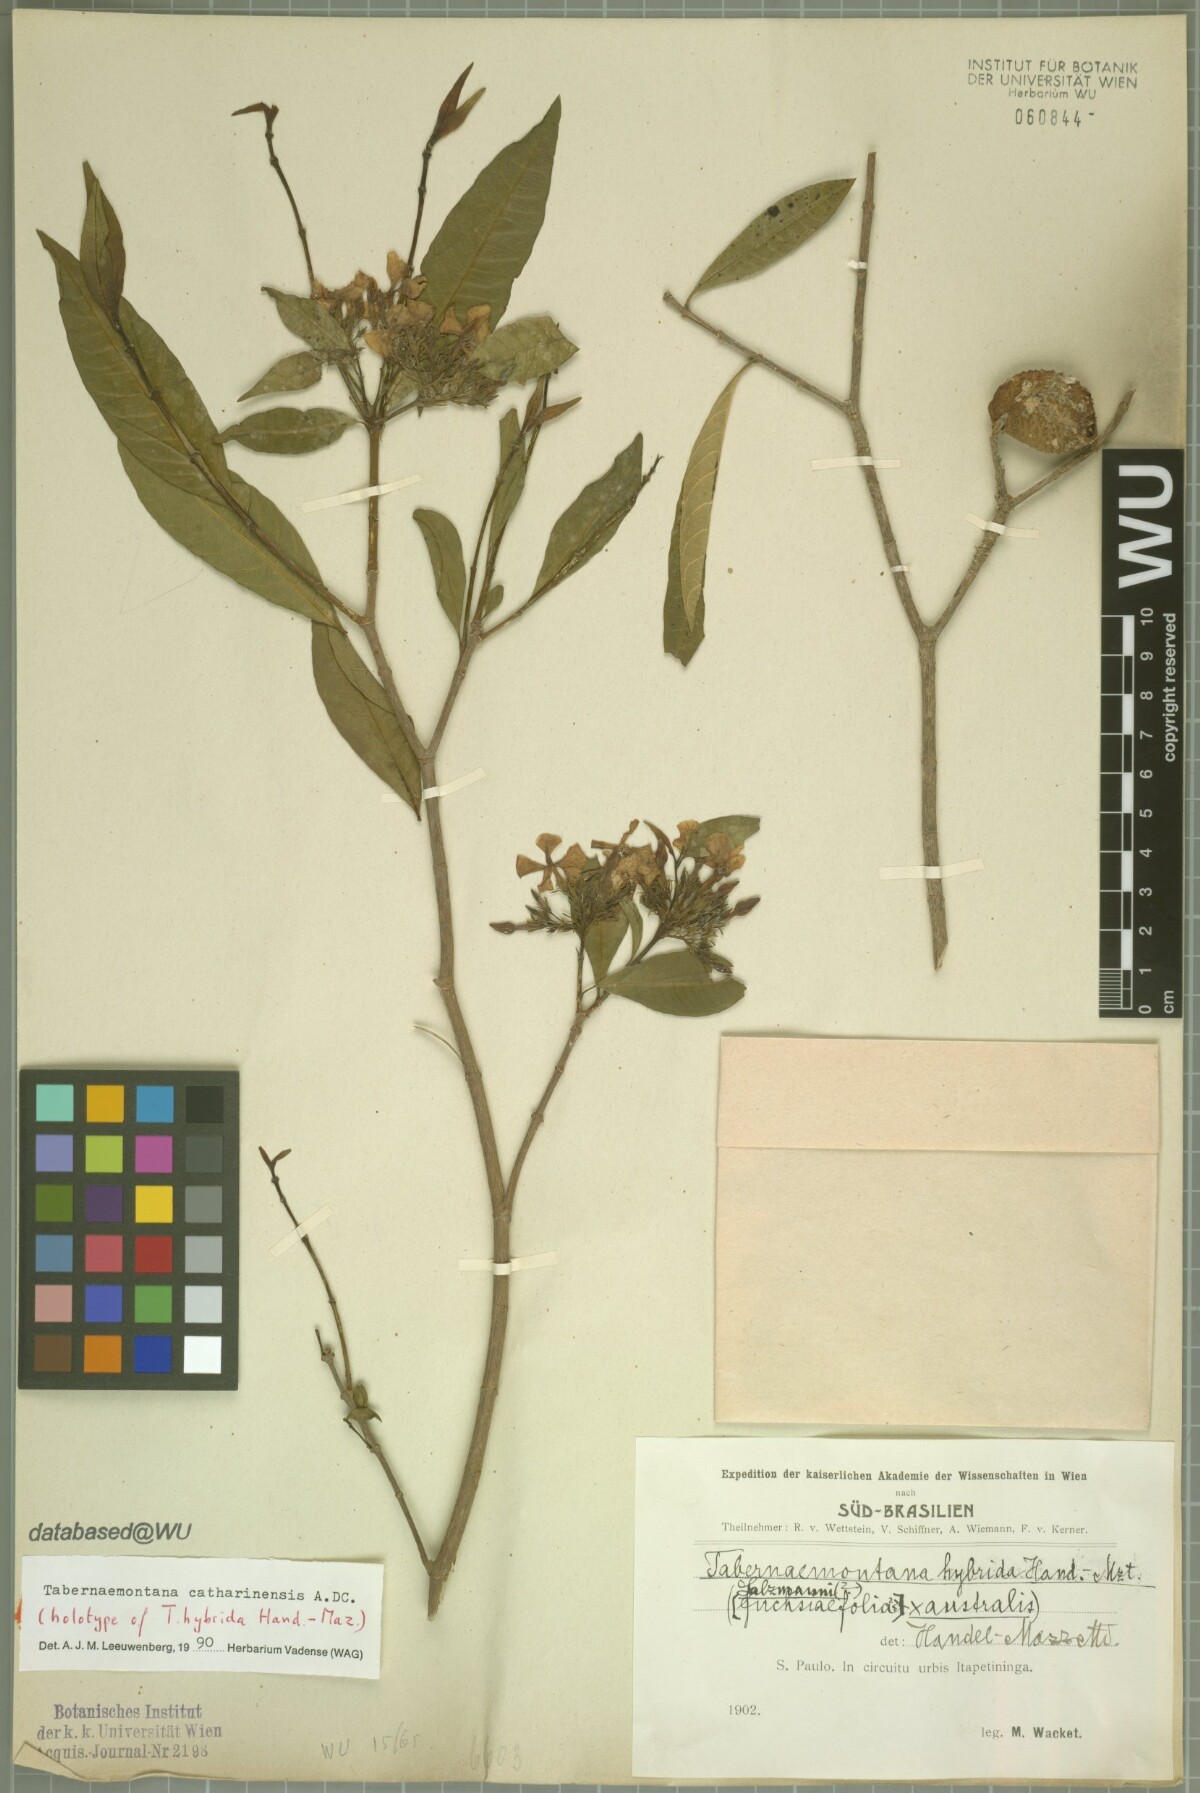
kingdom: Plantae
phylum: Tracheophyta
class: Magnoliopsida
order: Gentianales
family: Apocynaceae
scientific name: Apocynaceae
